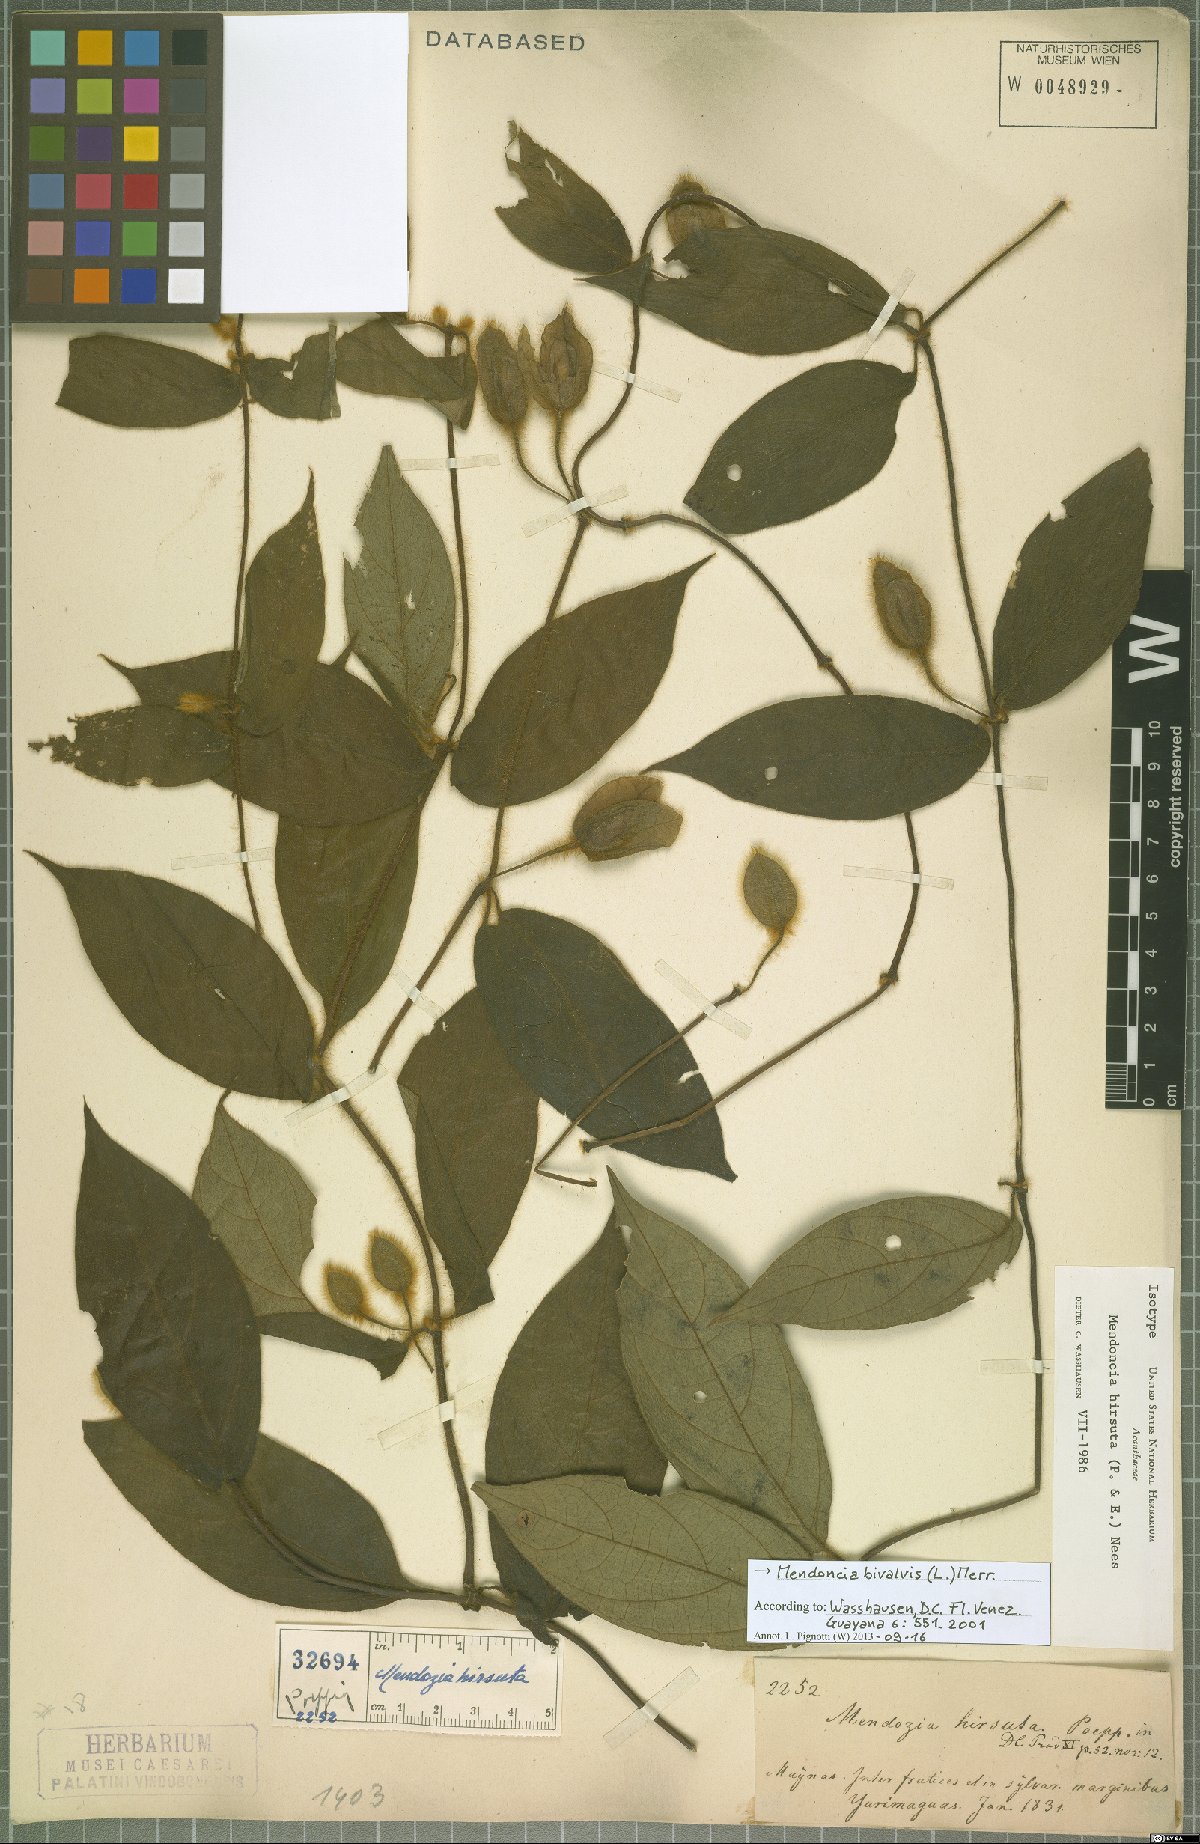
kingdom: Plantae
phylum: Tracheophyta
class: Magnoliopsida
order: Lamiales
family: Acanthaceae
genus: Mendoncia
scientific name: Mendoncia bivalvis
